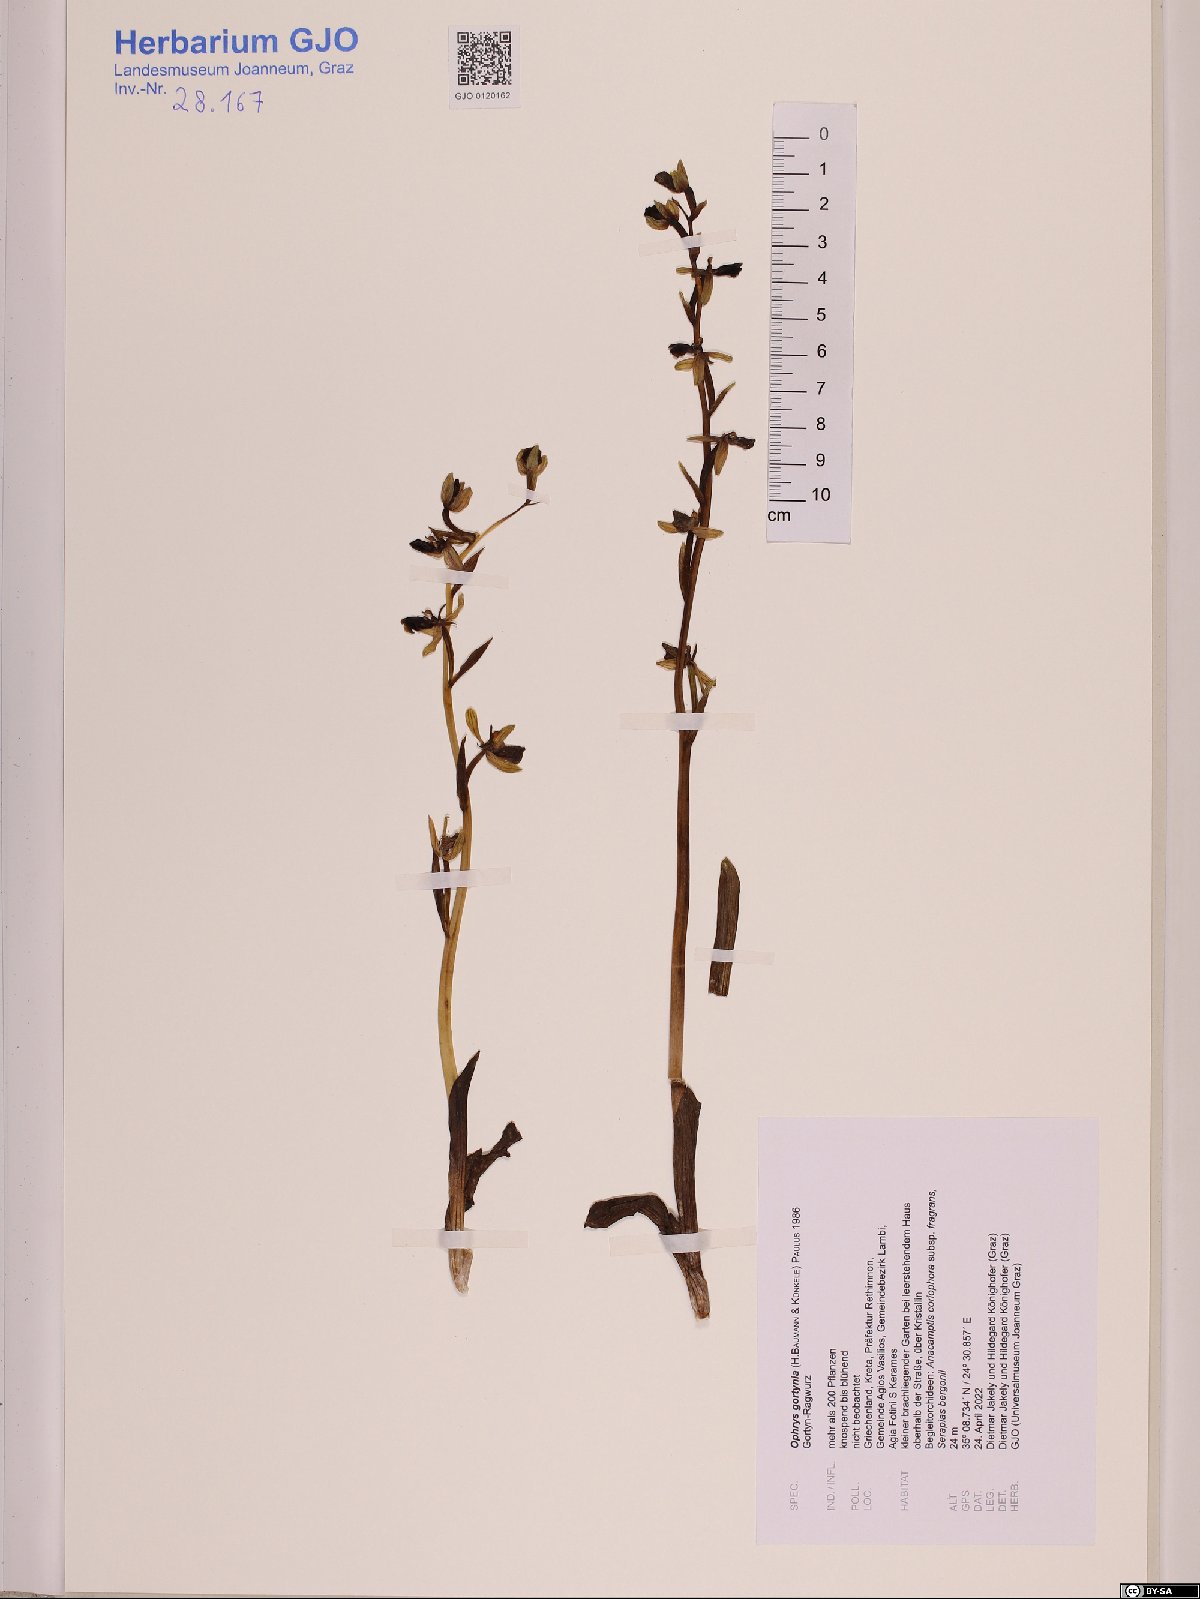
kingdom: Plantae
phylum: Tracheophyta
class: Liliopsida
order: Asparagales
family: Orchidaceae
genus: Ophrys
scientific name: Ophrys sphegodes
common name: Early spider-orchid
